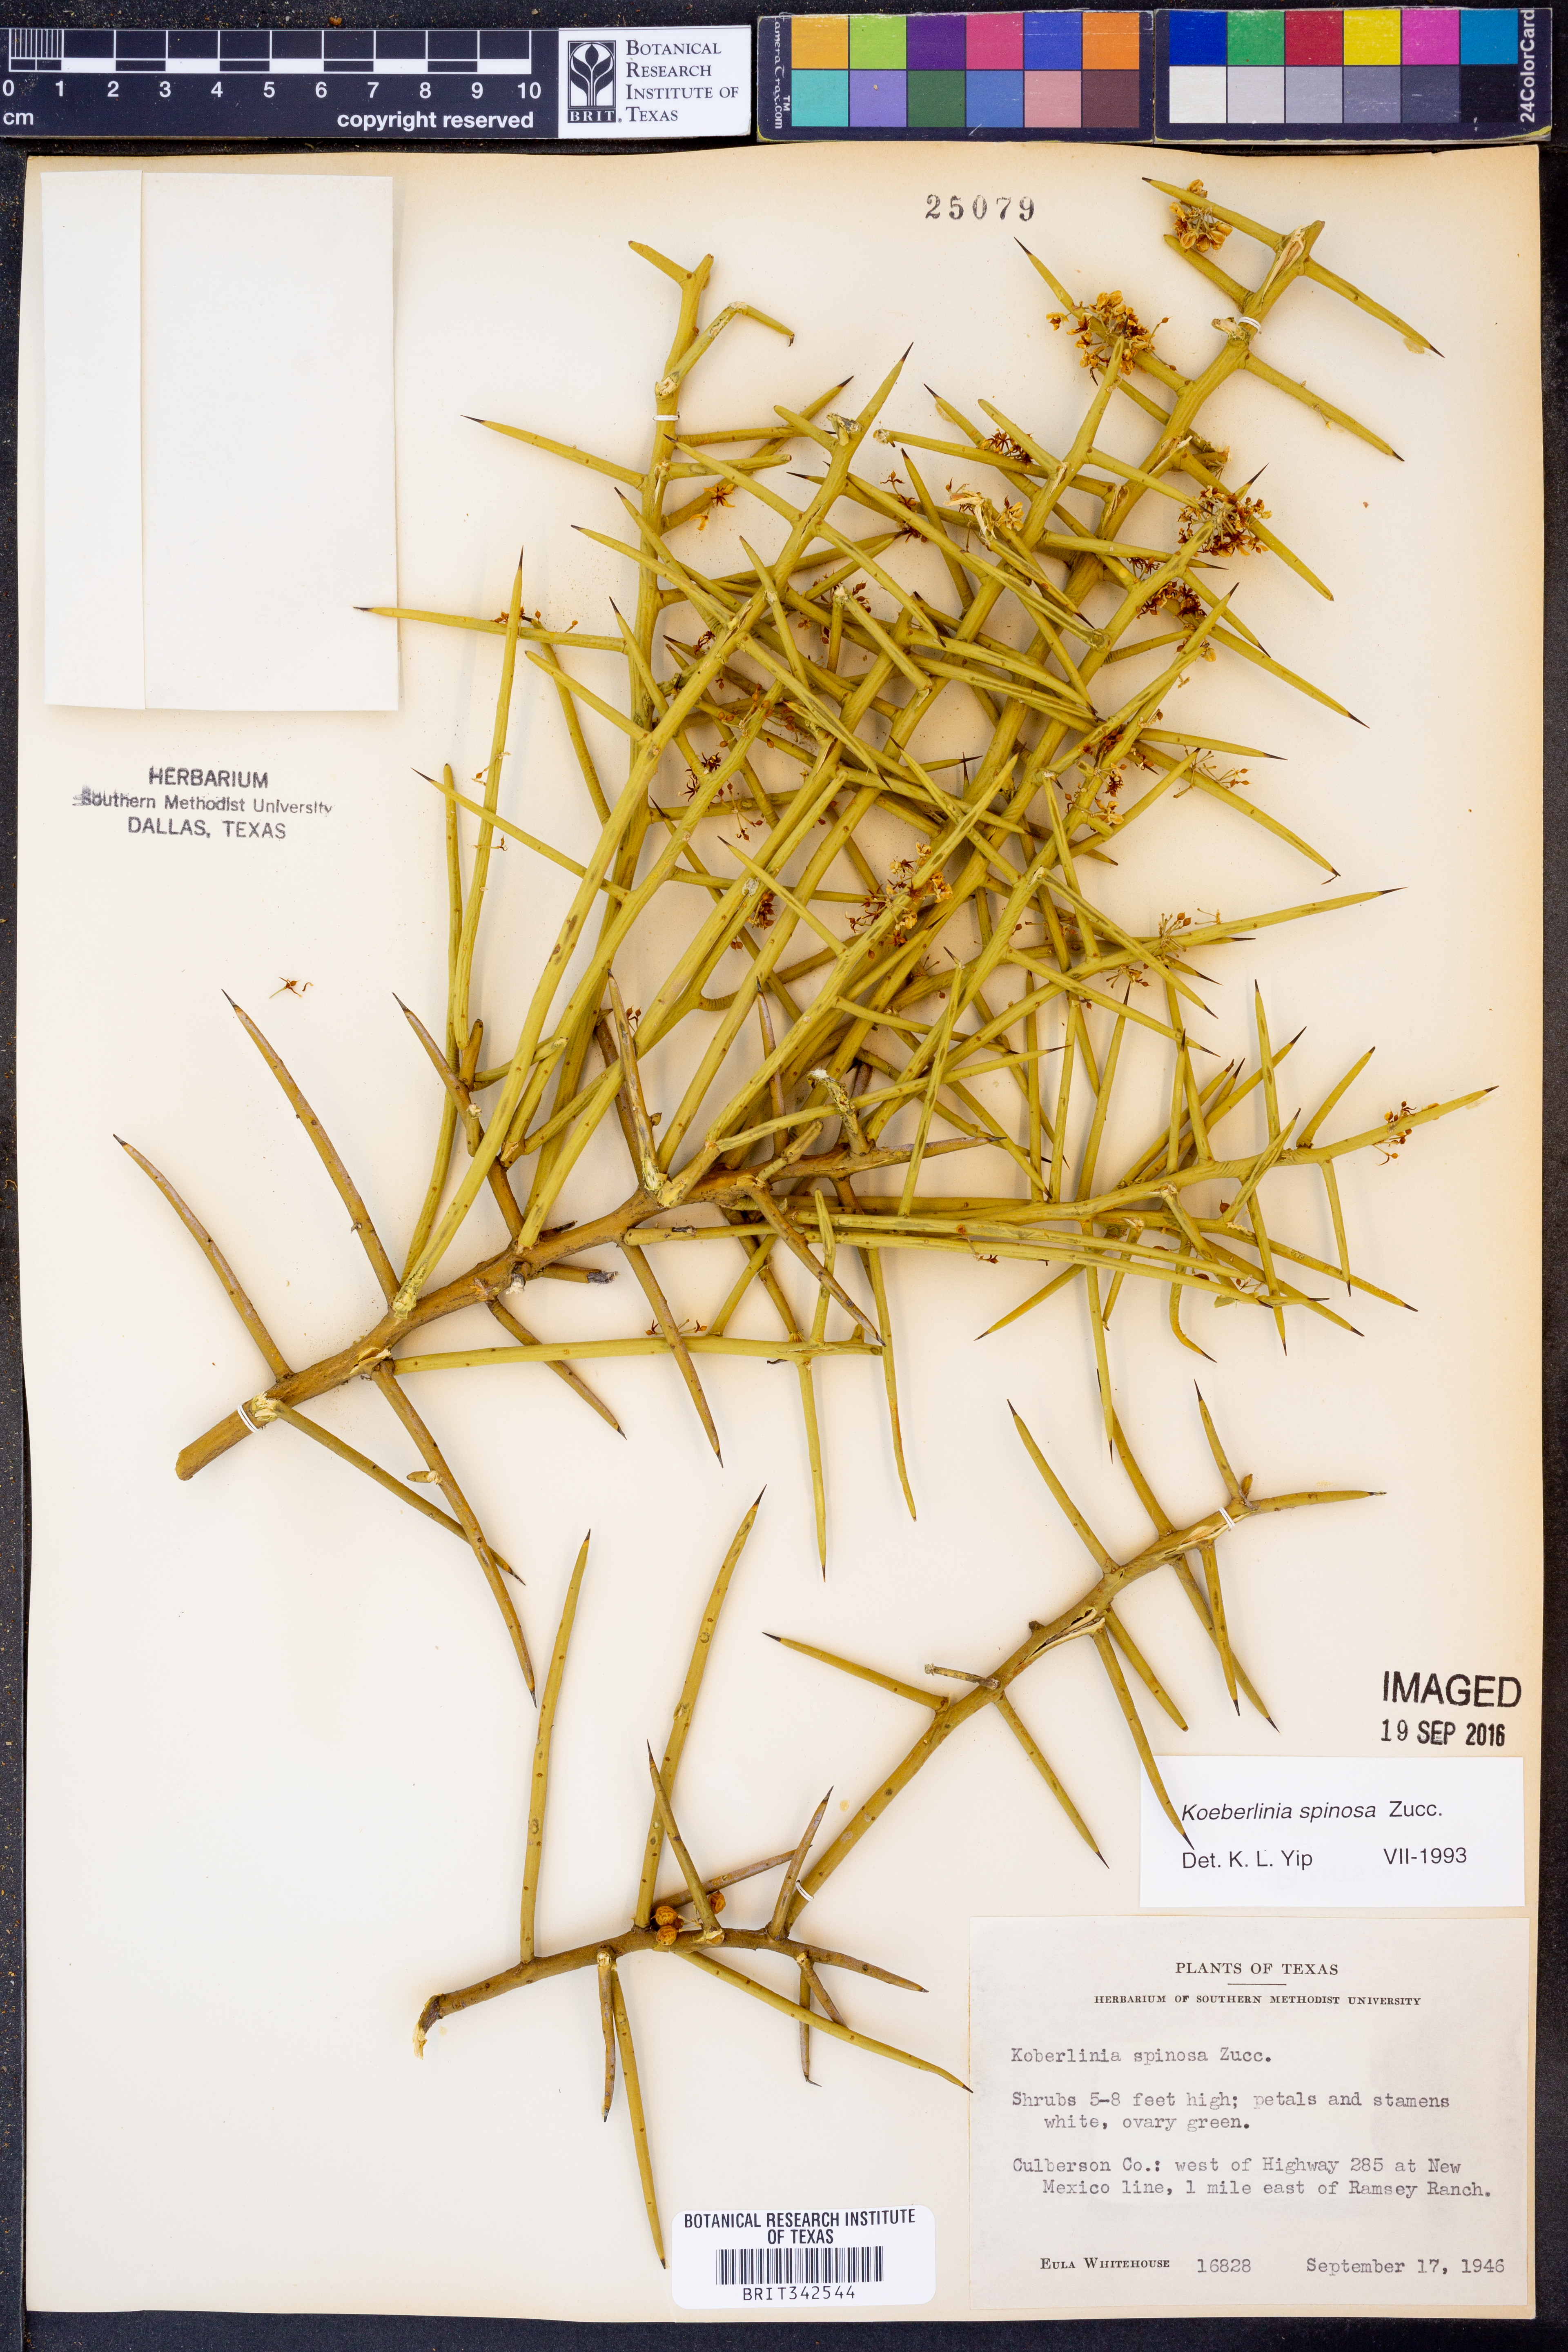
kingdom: Plantae
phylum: Tracheophyta
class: Magnoliopsida
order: Brassicales
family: Koeberliniaceae
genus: Koeberlinia
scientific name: Koeberlinia spinosa
